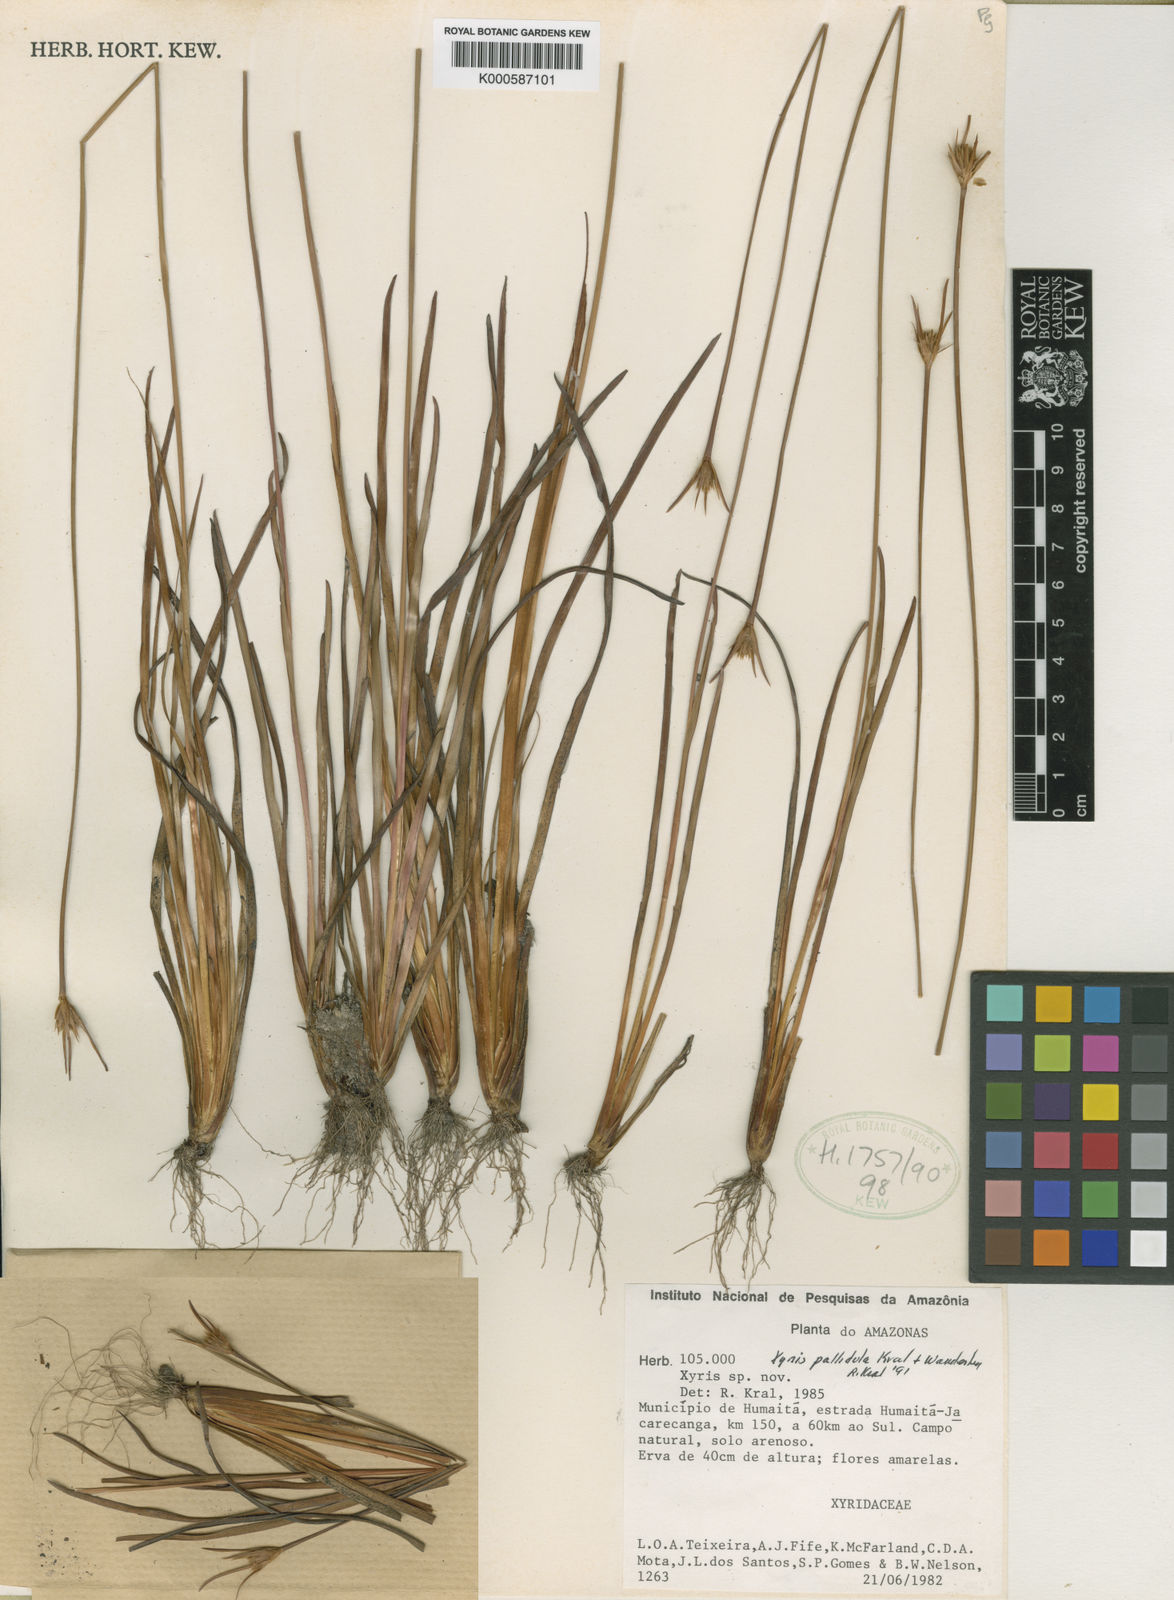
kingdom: Plantae
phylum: Tracheophyta
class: Liliopsida
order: Poales
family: Xyridaceae
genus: Xyris
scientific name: Xyris pallidula
